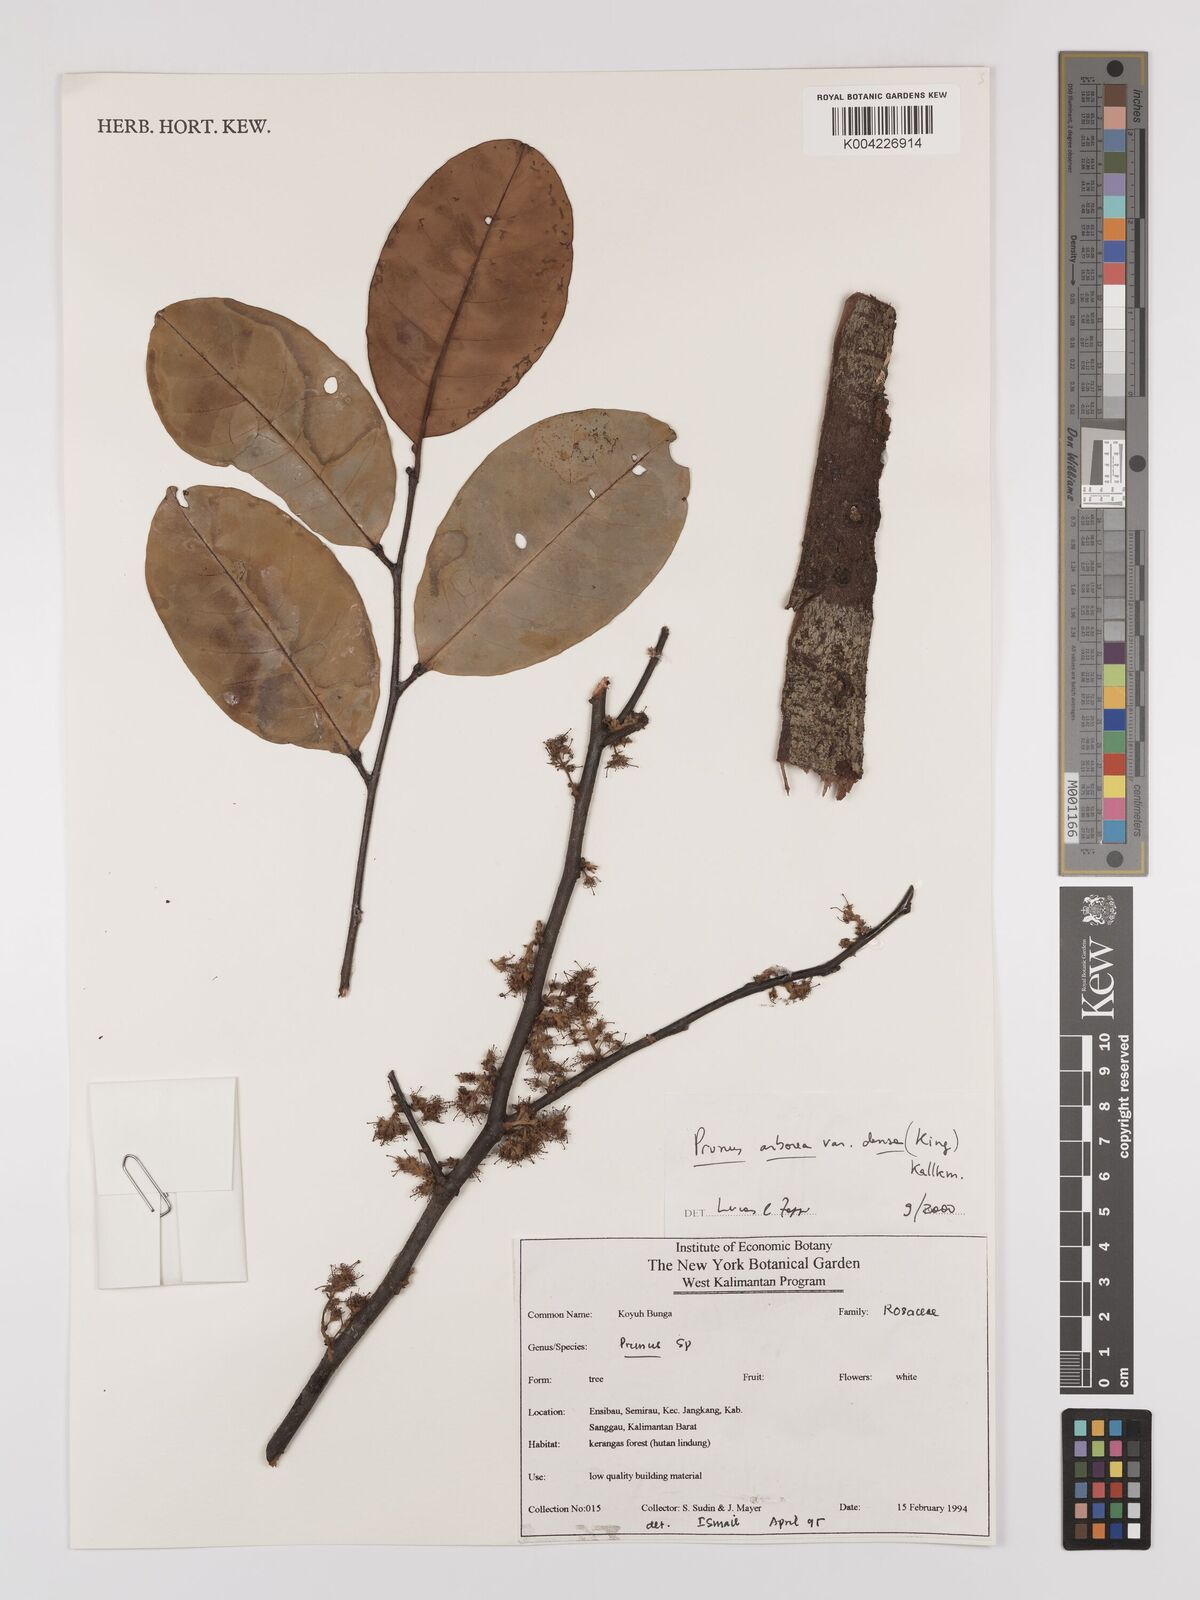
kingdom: Plantae
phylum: Tracheophyta
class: Magnoliopsida
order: Rosales
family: Rosaceae
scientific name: Rosaceae
